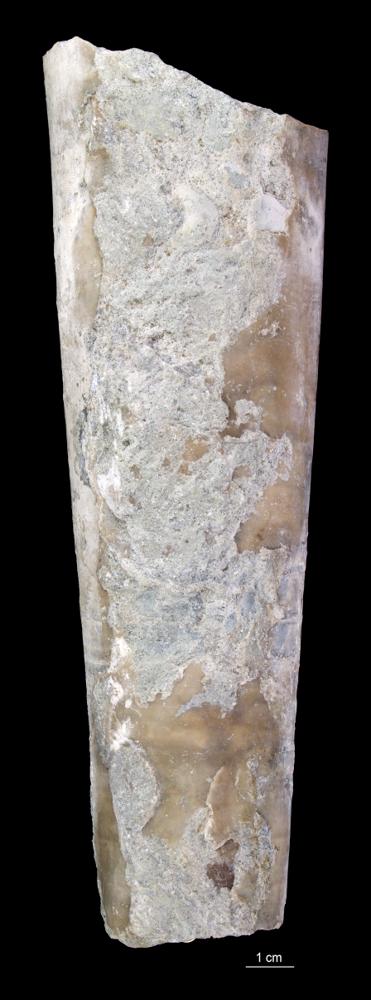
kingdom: Animalia
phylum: Mollusca
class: Cephalopoda
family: Endoceratidae
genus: Endoceras
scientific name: Endoceras
